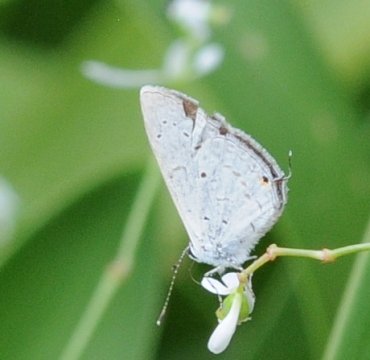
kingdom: Animalia
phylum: Arthropoda
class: Insecta
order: Lepidoptera
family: Lycaenidae
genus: Eicochrysops
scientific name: Eicochrysops hippocrates
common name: White-tipped Blue
